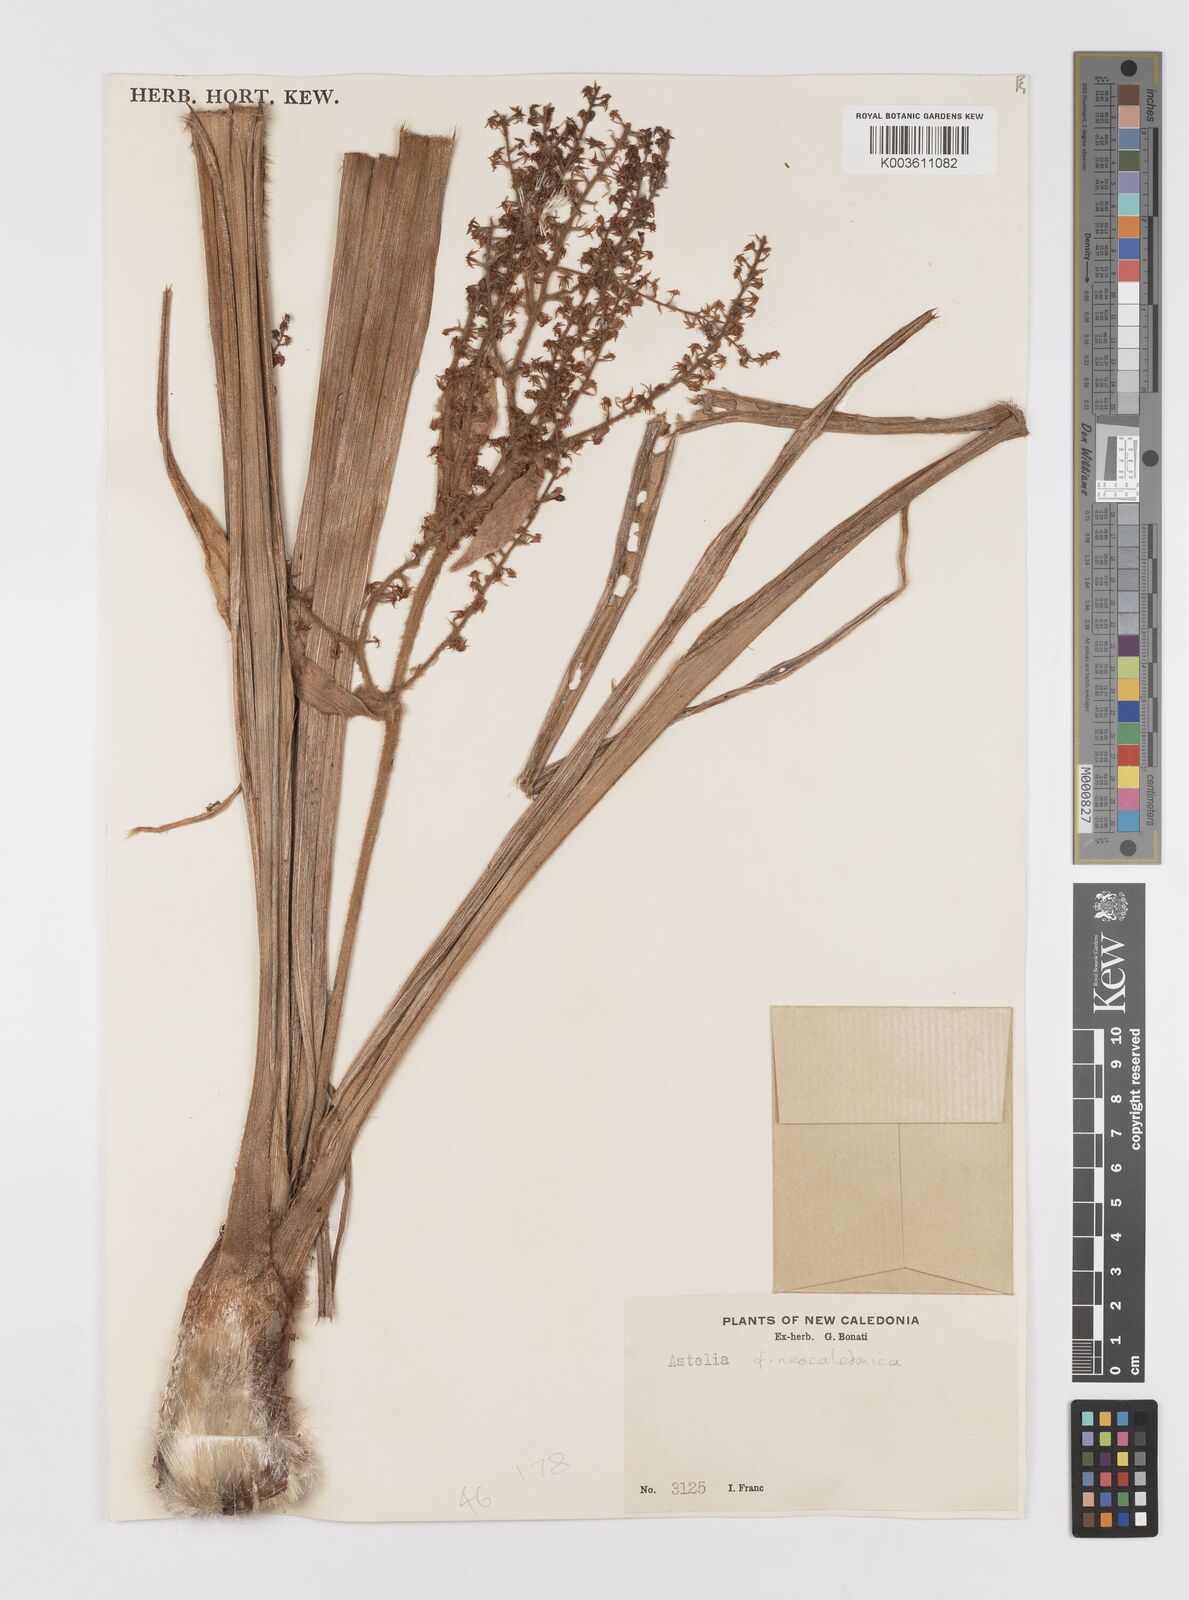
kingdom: Plantae
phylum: Tracheophyta
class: Liliopsida
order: Asparagales
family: Asteliaceae
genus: Astelia
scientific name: Astelia neocaledonica
